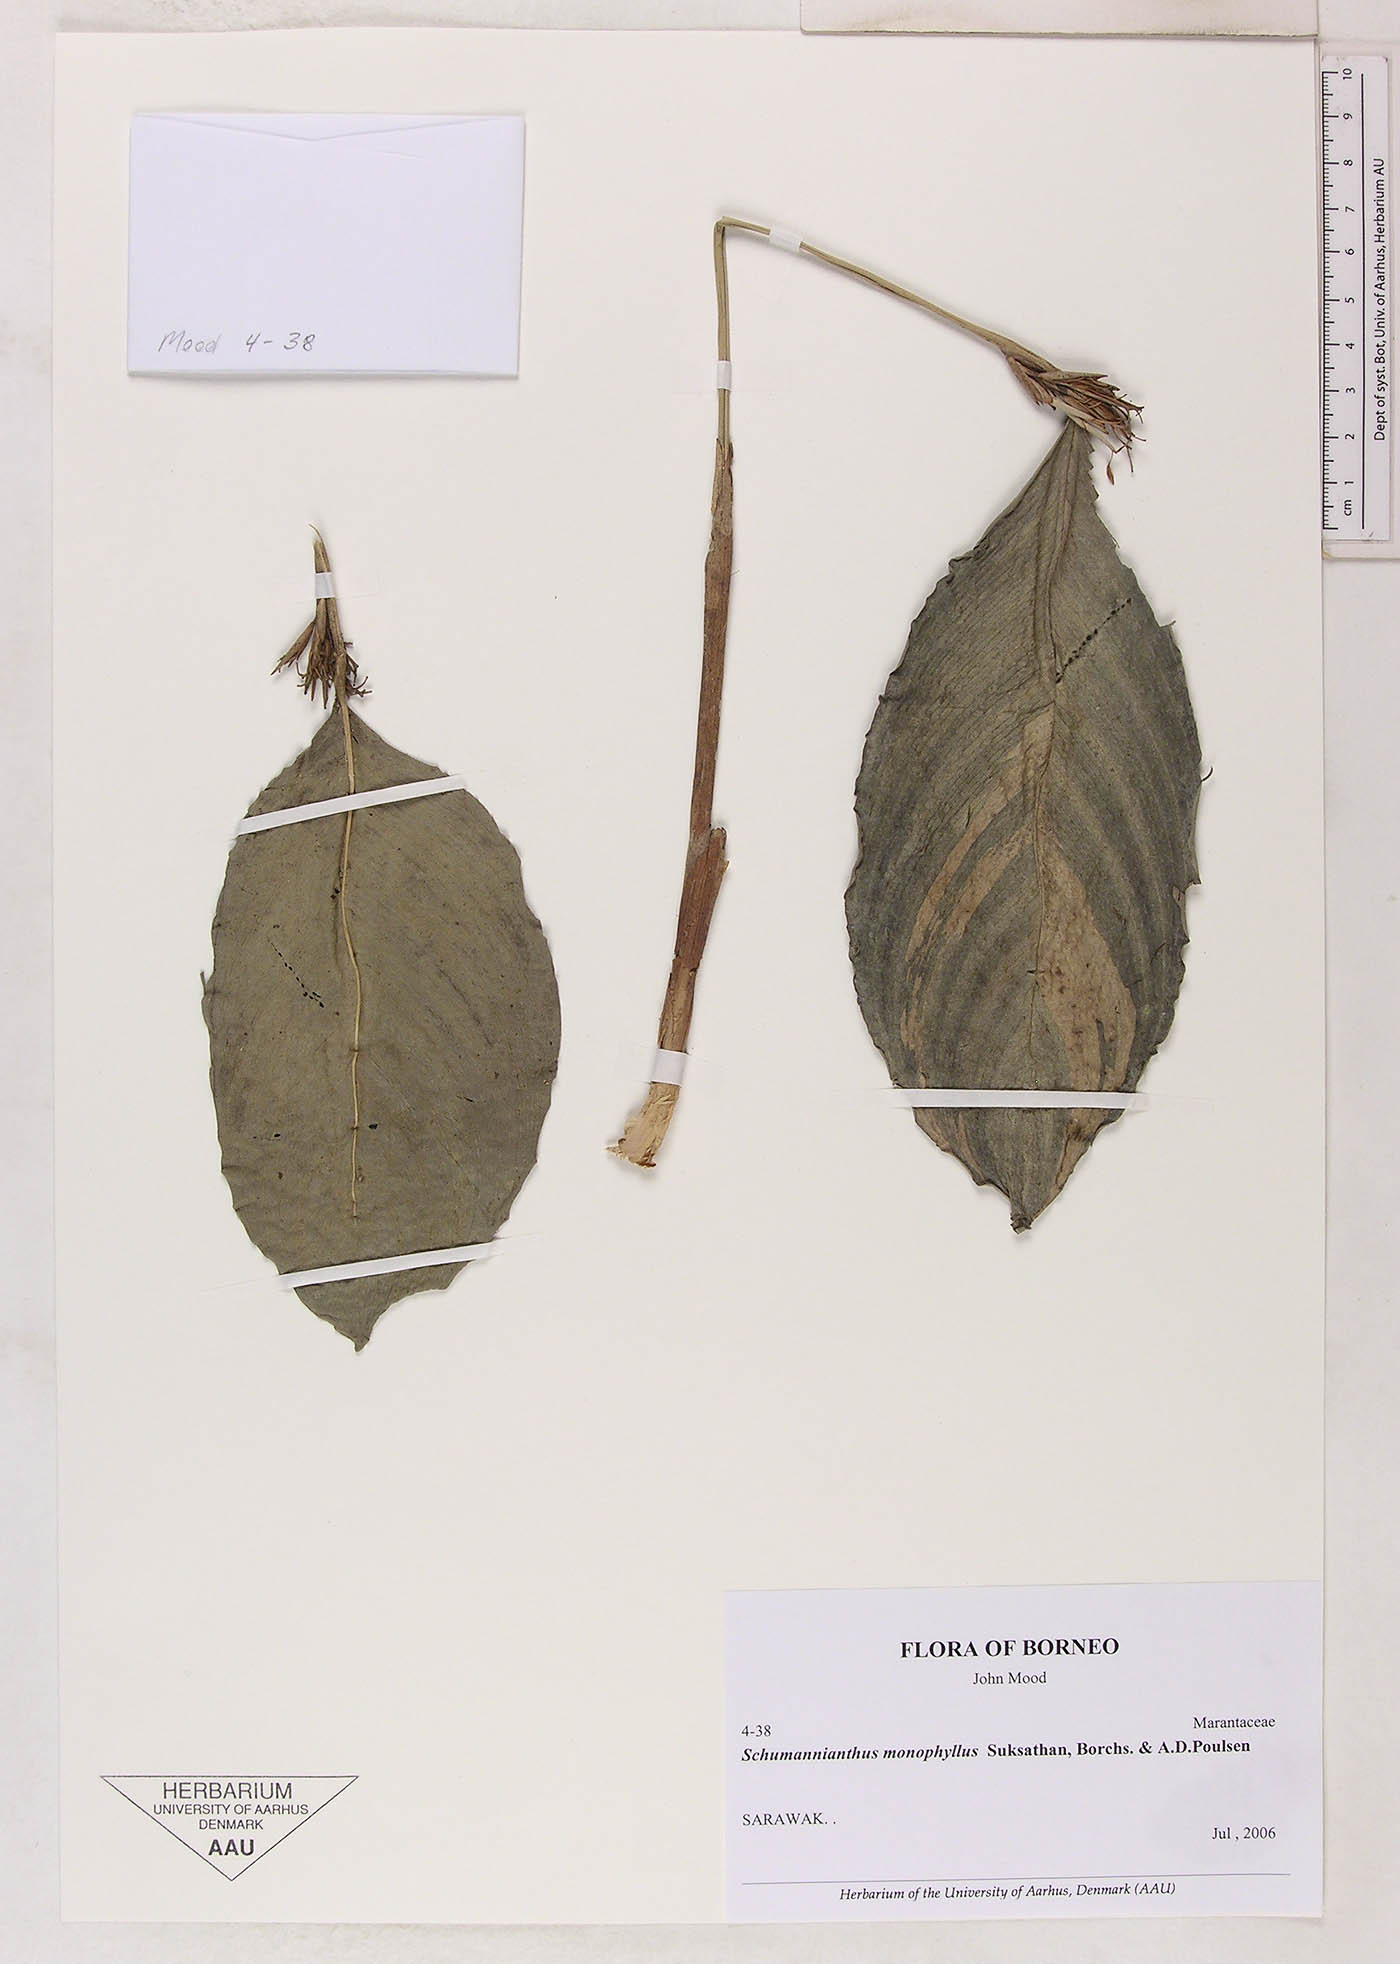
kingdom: Plantae
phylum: Tracheophyta
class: Liliopsida
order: Zingiberales
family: Marantaceae
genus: Schumannianthus
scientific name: Schumannianthus monophyllus
